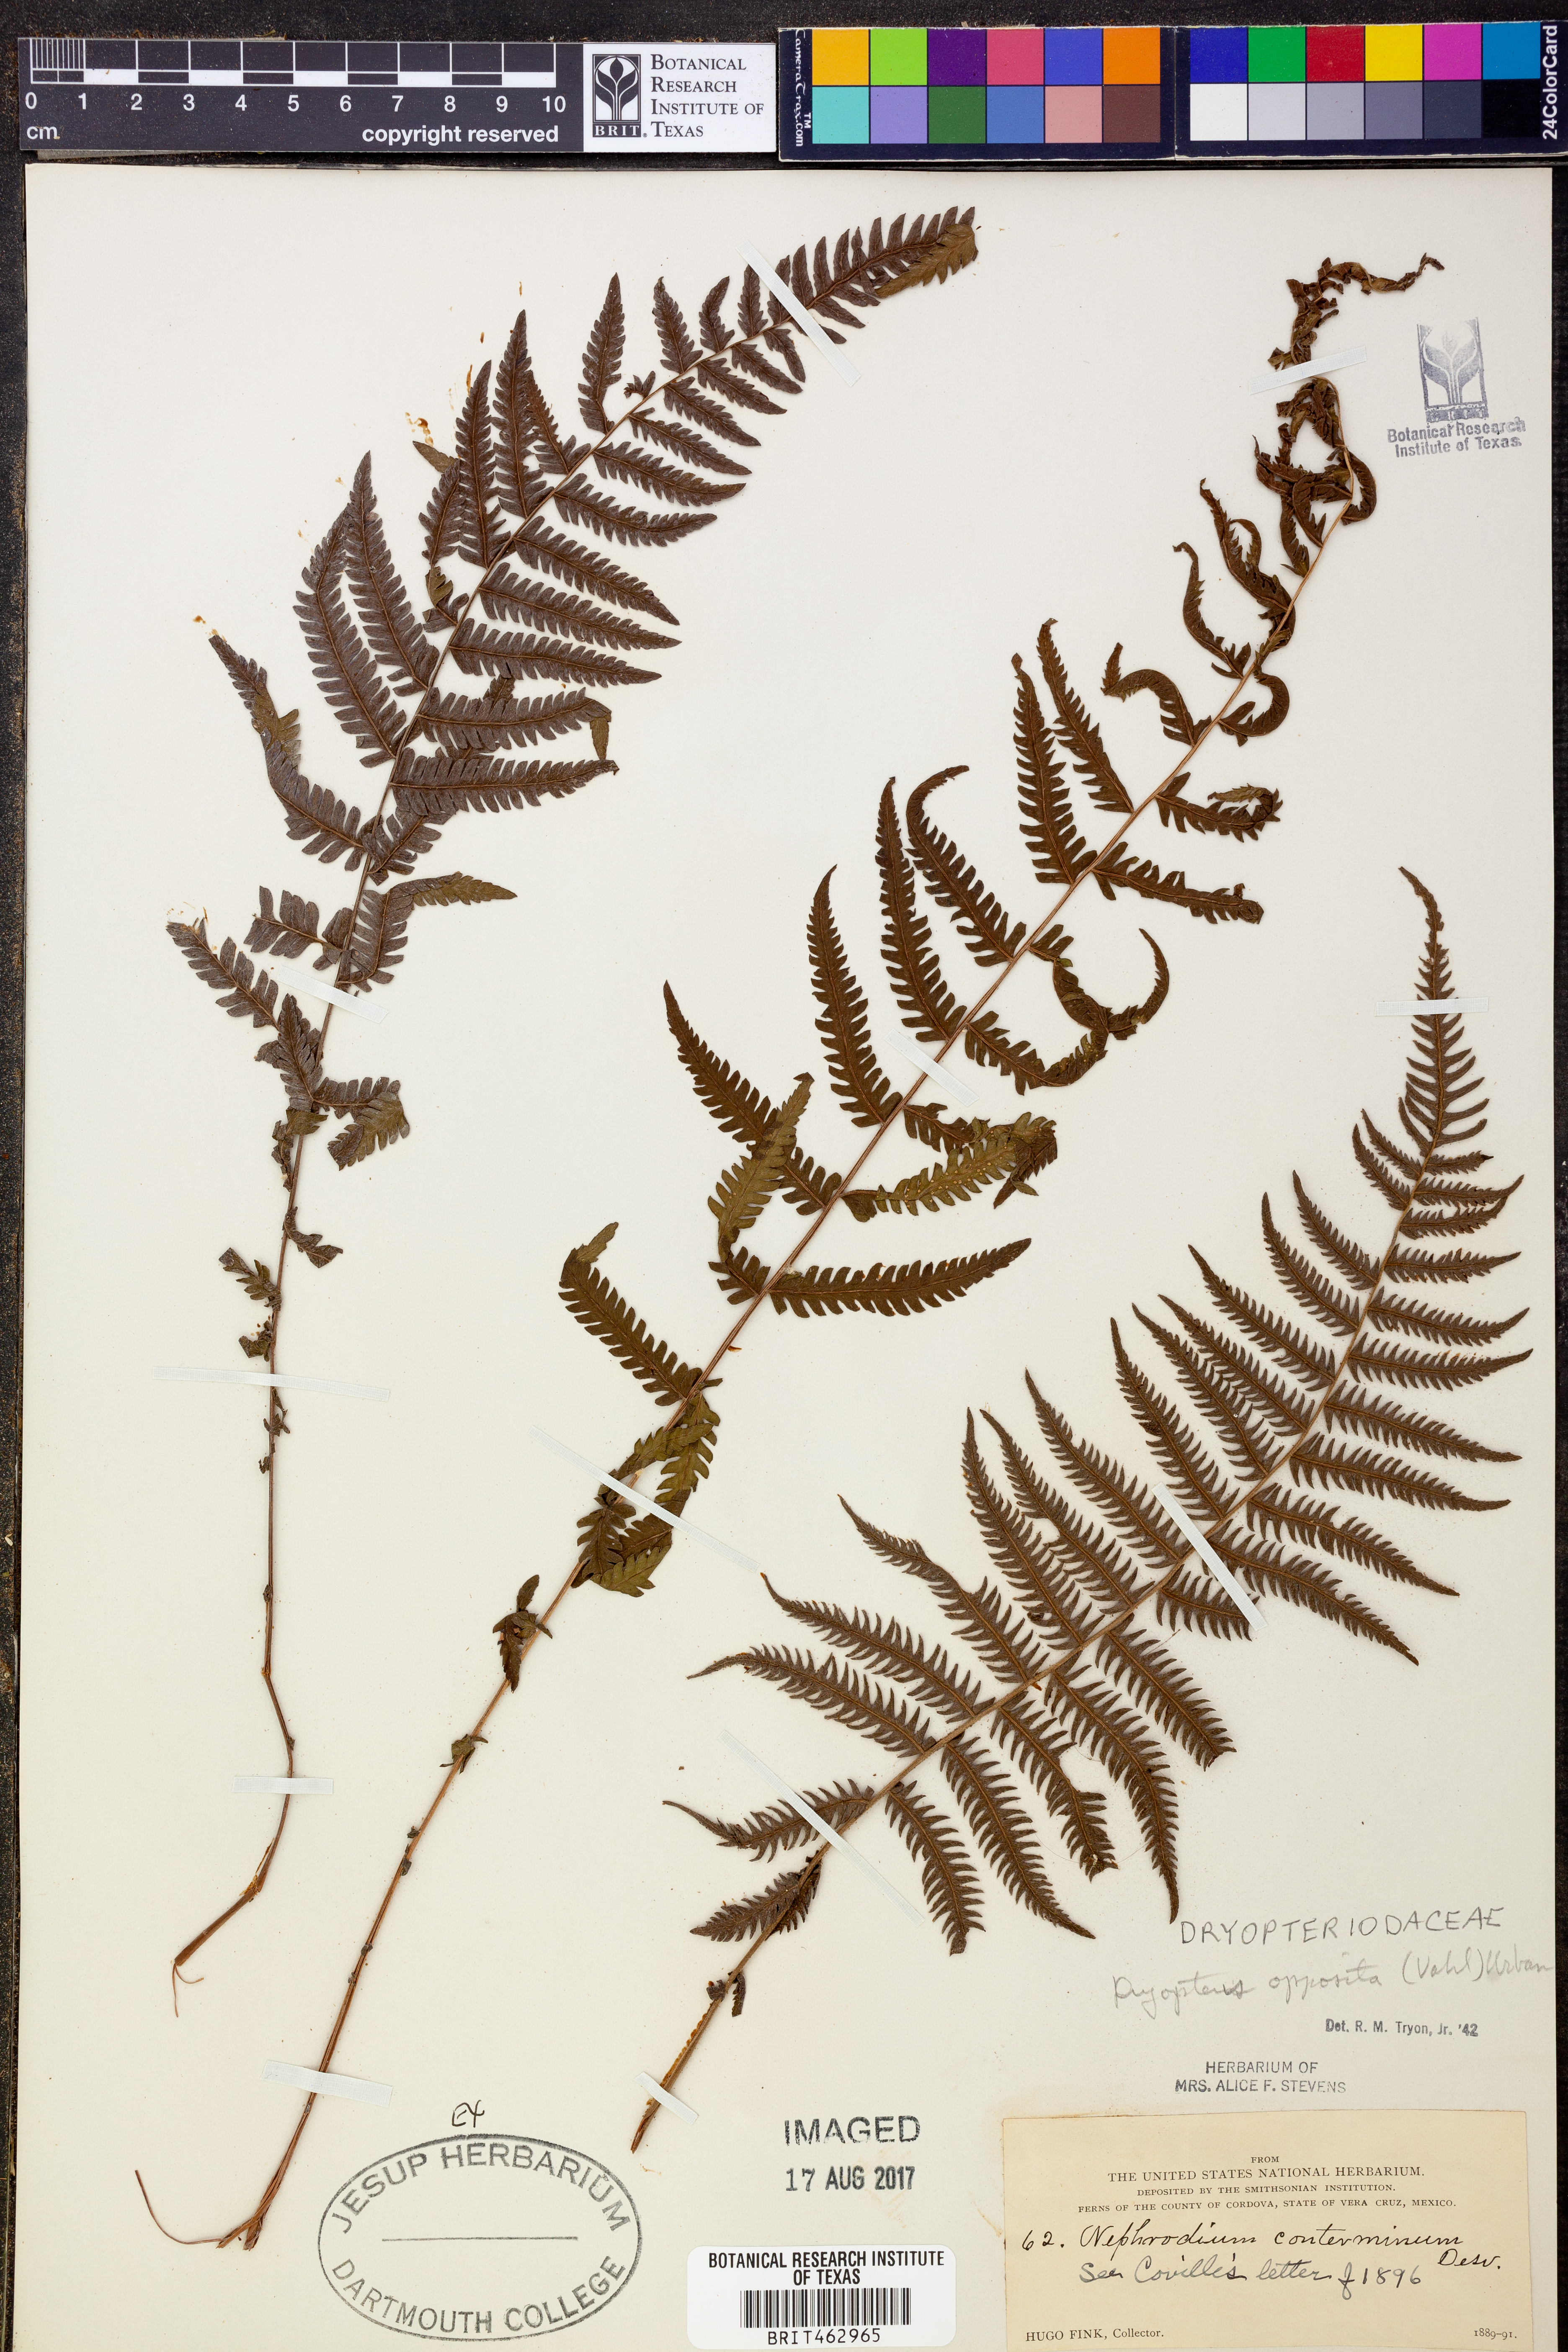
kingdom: Plantae
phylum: Tracheophyta
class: Polypodiopsida
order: Polypodiales
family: Thelypteridaceae
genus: Amauropelta
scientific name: Amauropelta opposita
